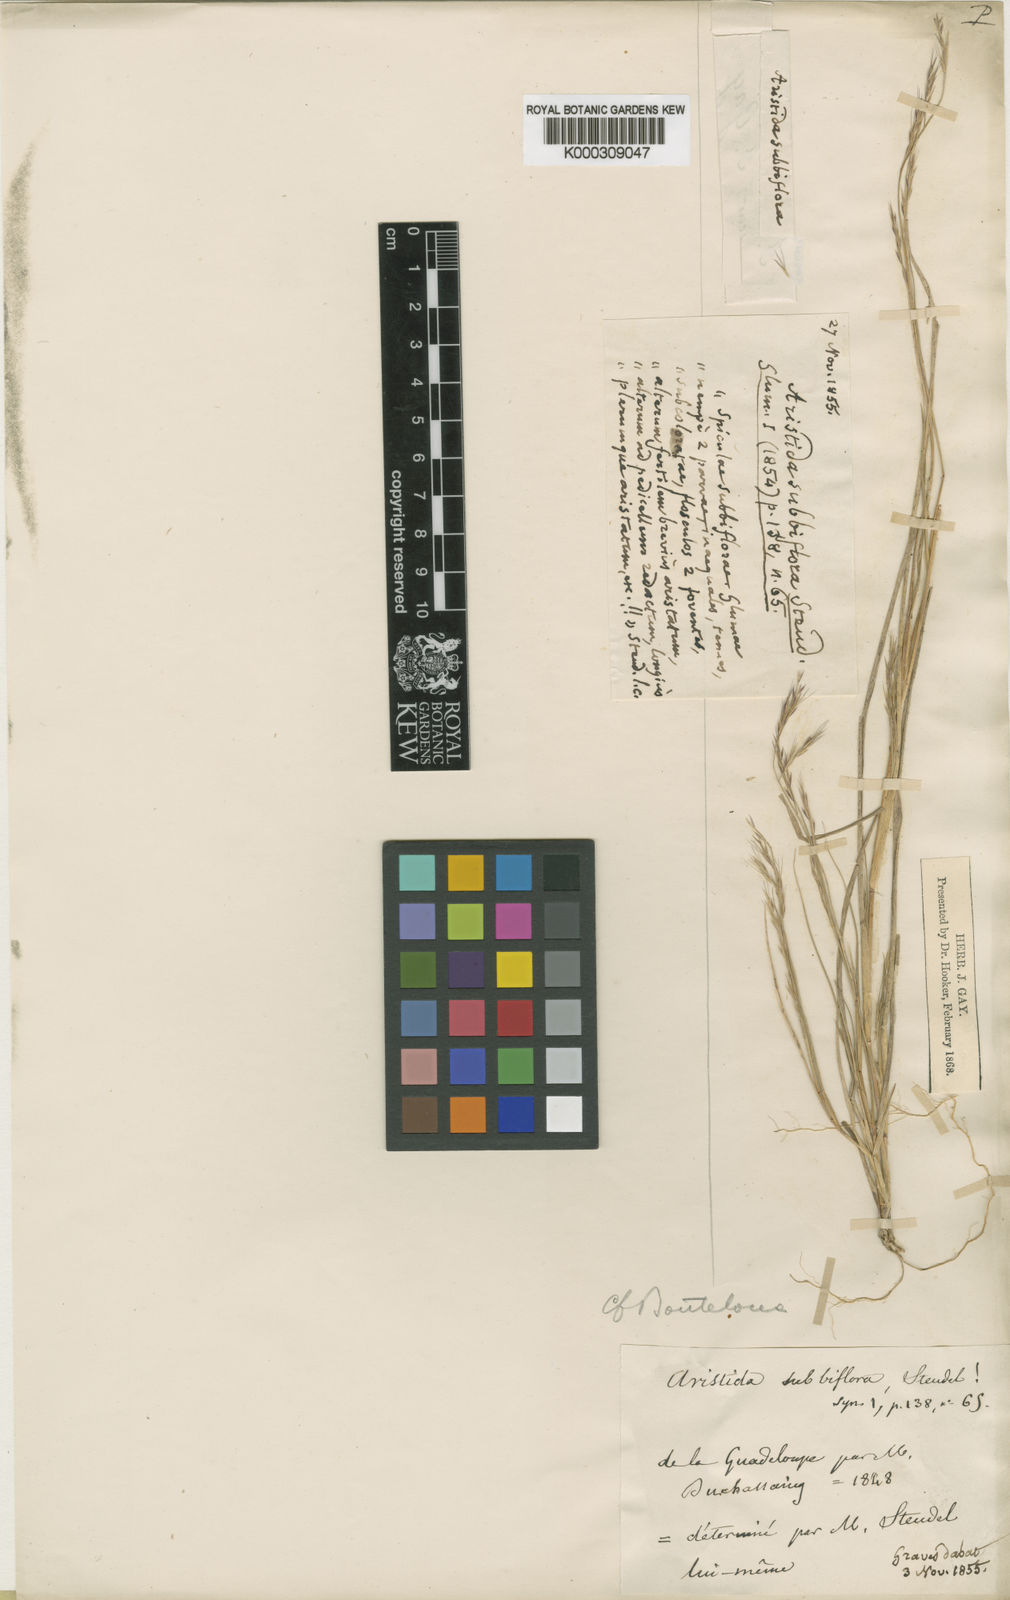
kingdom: Plantae
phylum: Tracheophyta
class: Liliopsida
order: Poales
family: Poaceae
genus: Bouteloua
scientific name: Bouteloua americana
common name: Mule grass
